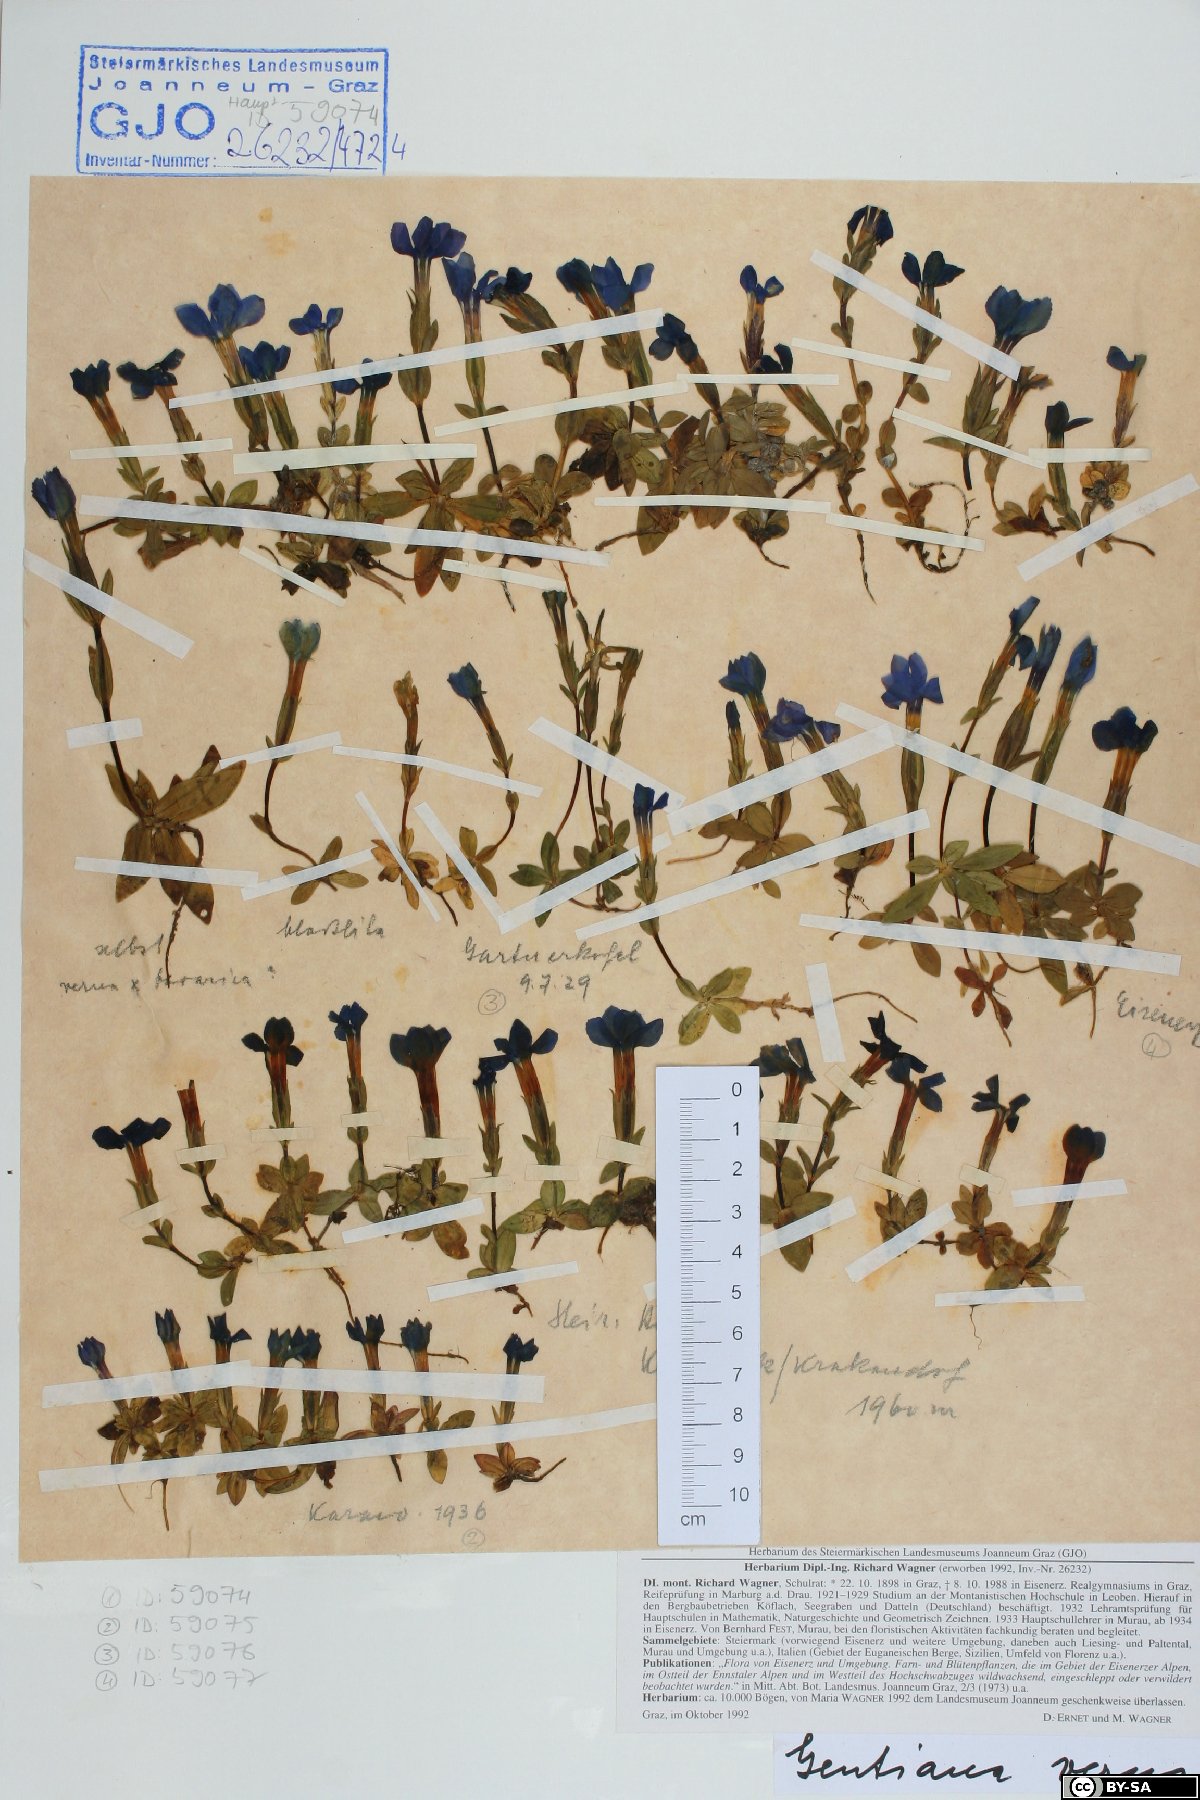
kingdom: Plantae
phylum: Tracheophyta
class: Magnoliopsida
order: Gentianales
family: Gentianaceae
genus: Gentiana
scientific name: Gentiana verna
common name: Spring gentian
